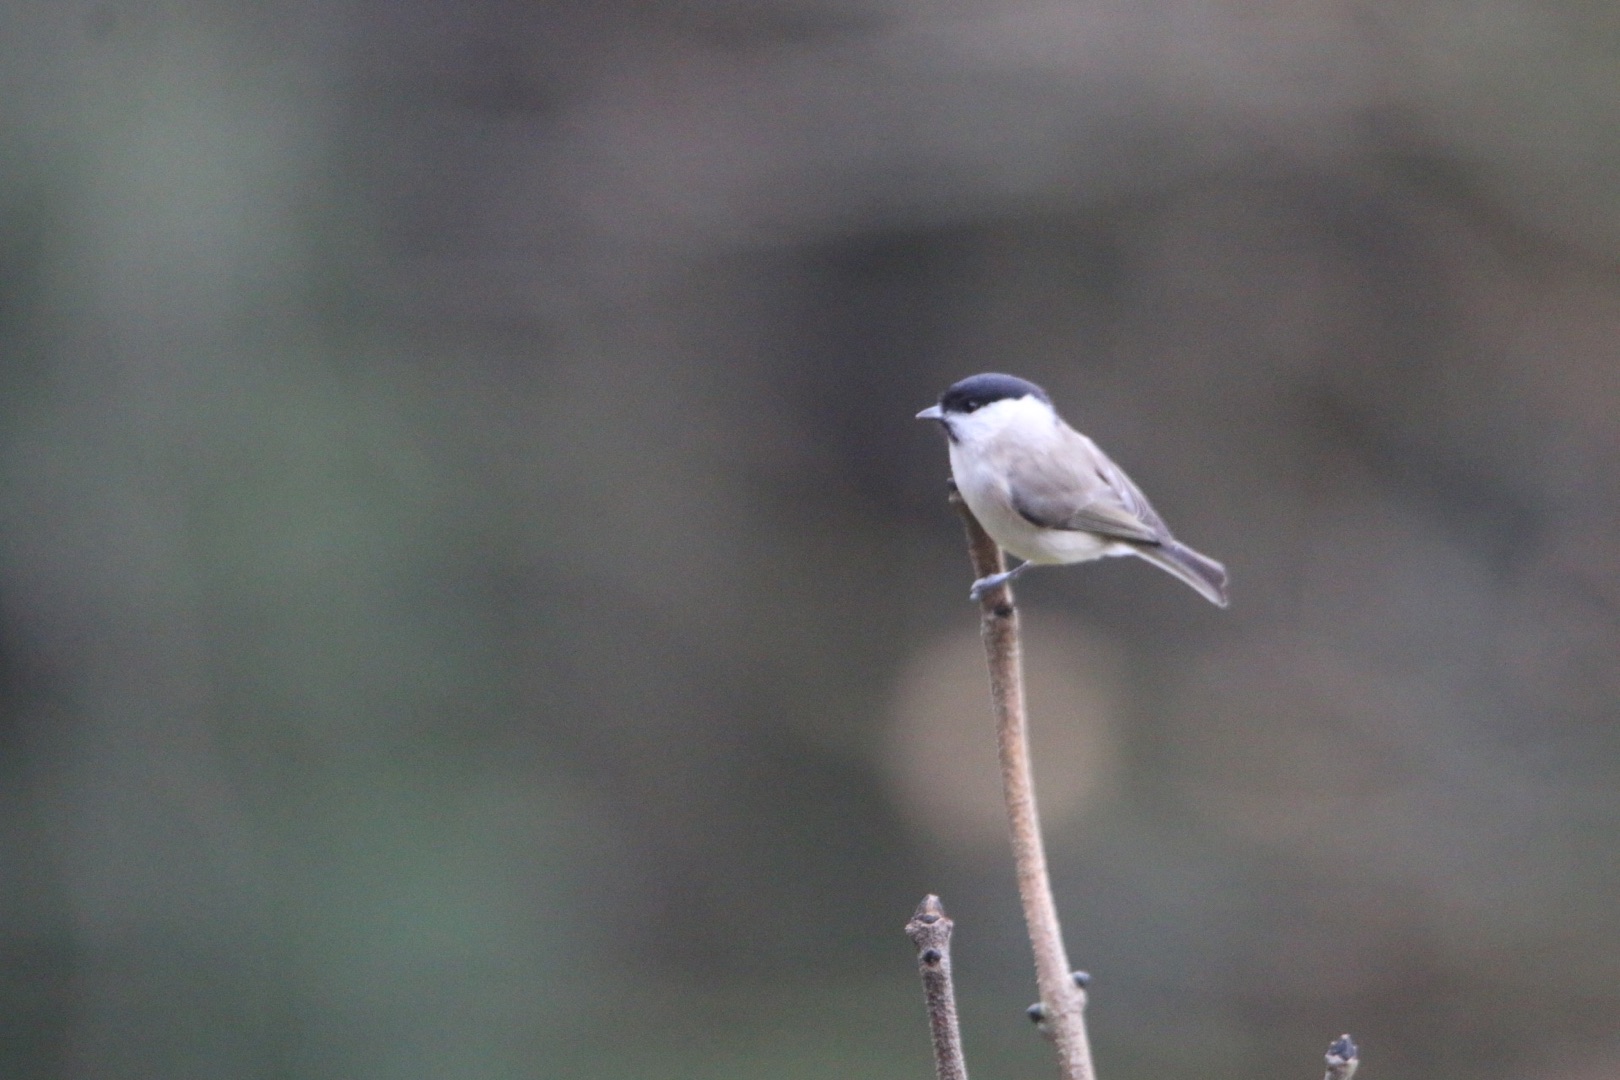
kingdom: Animalia
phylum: Chordata
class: Aves
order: Passeriformes
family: Paridae
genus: Poecile
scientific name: Poecile palustris
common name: Sumpmejse
